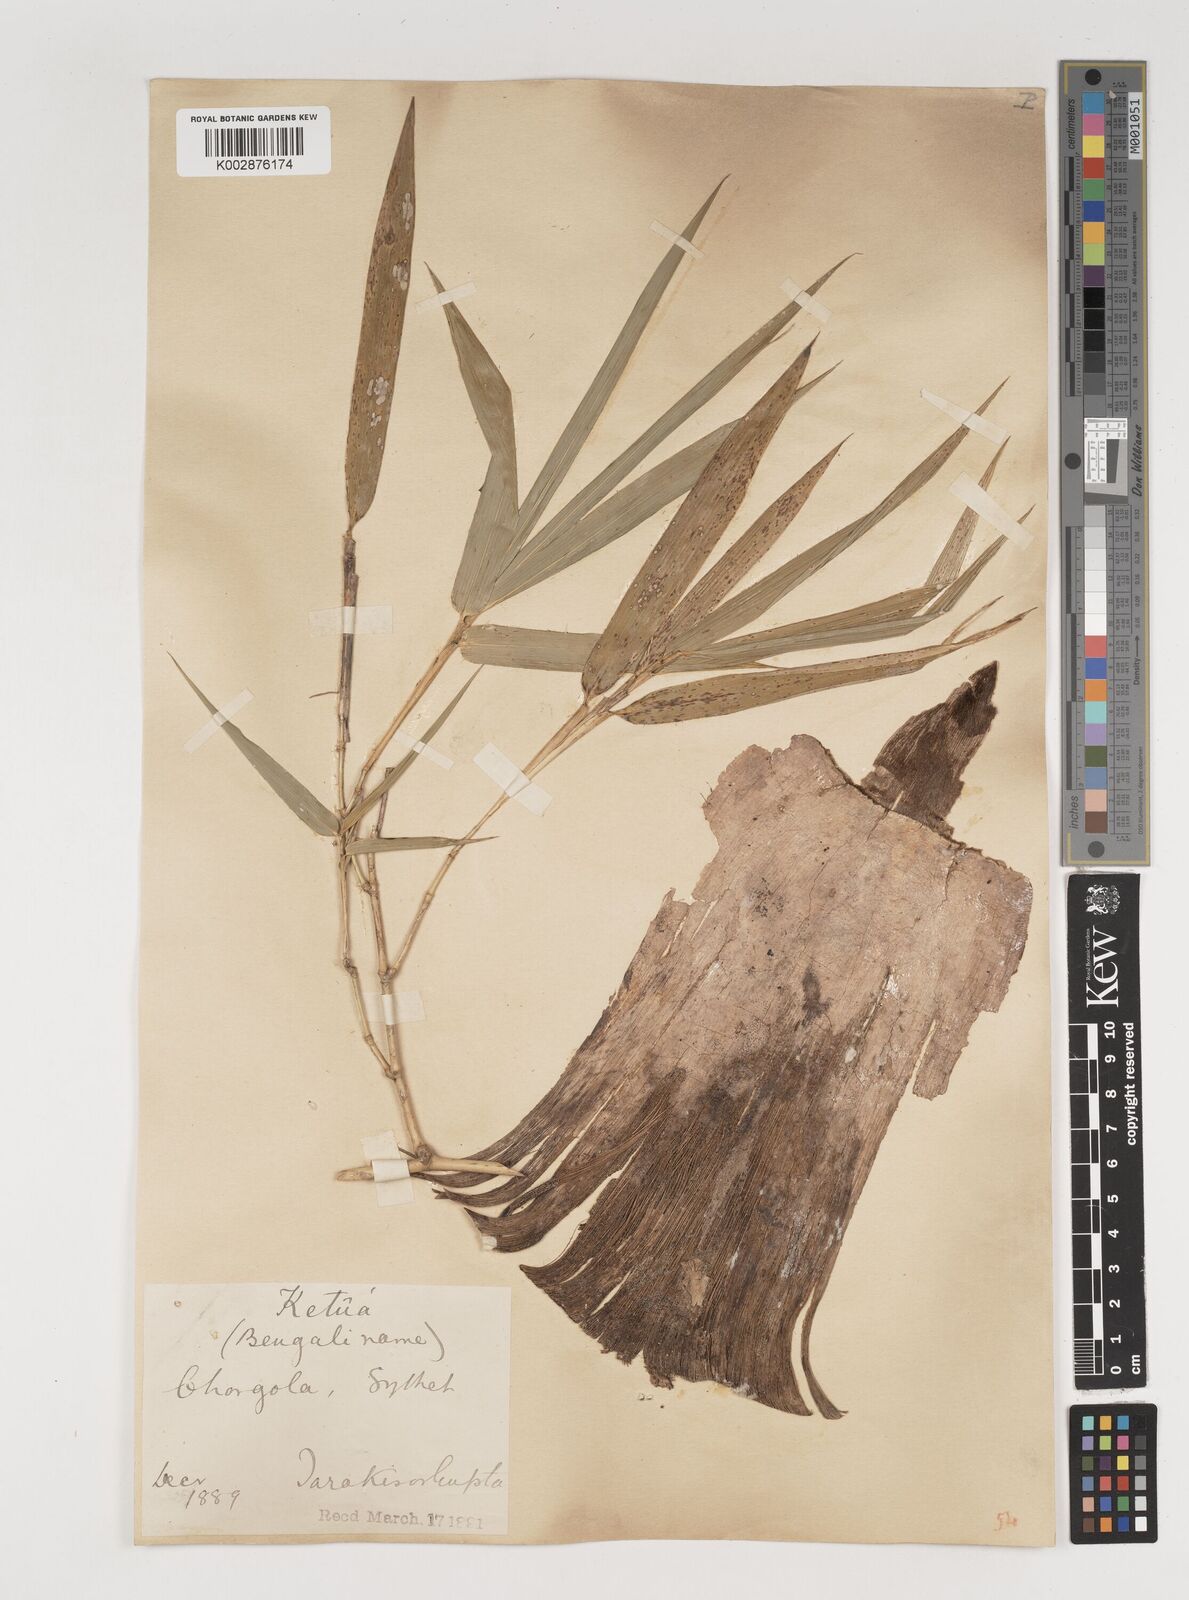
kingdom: Plantae
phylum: Tracheophyta
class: Liliopsida
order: Poales
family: Poaceae
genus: Bambusa
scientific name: Bambusa bambos
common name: Indian thorny bamboo
